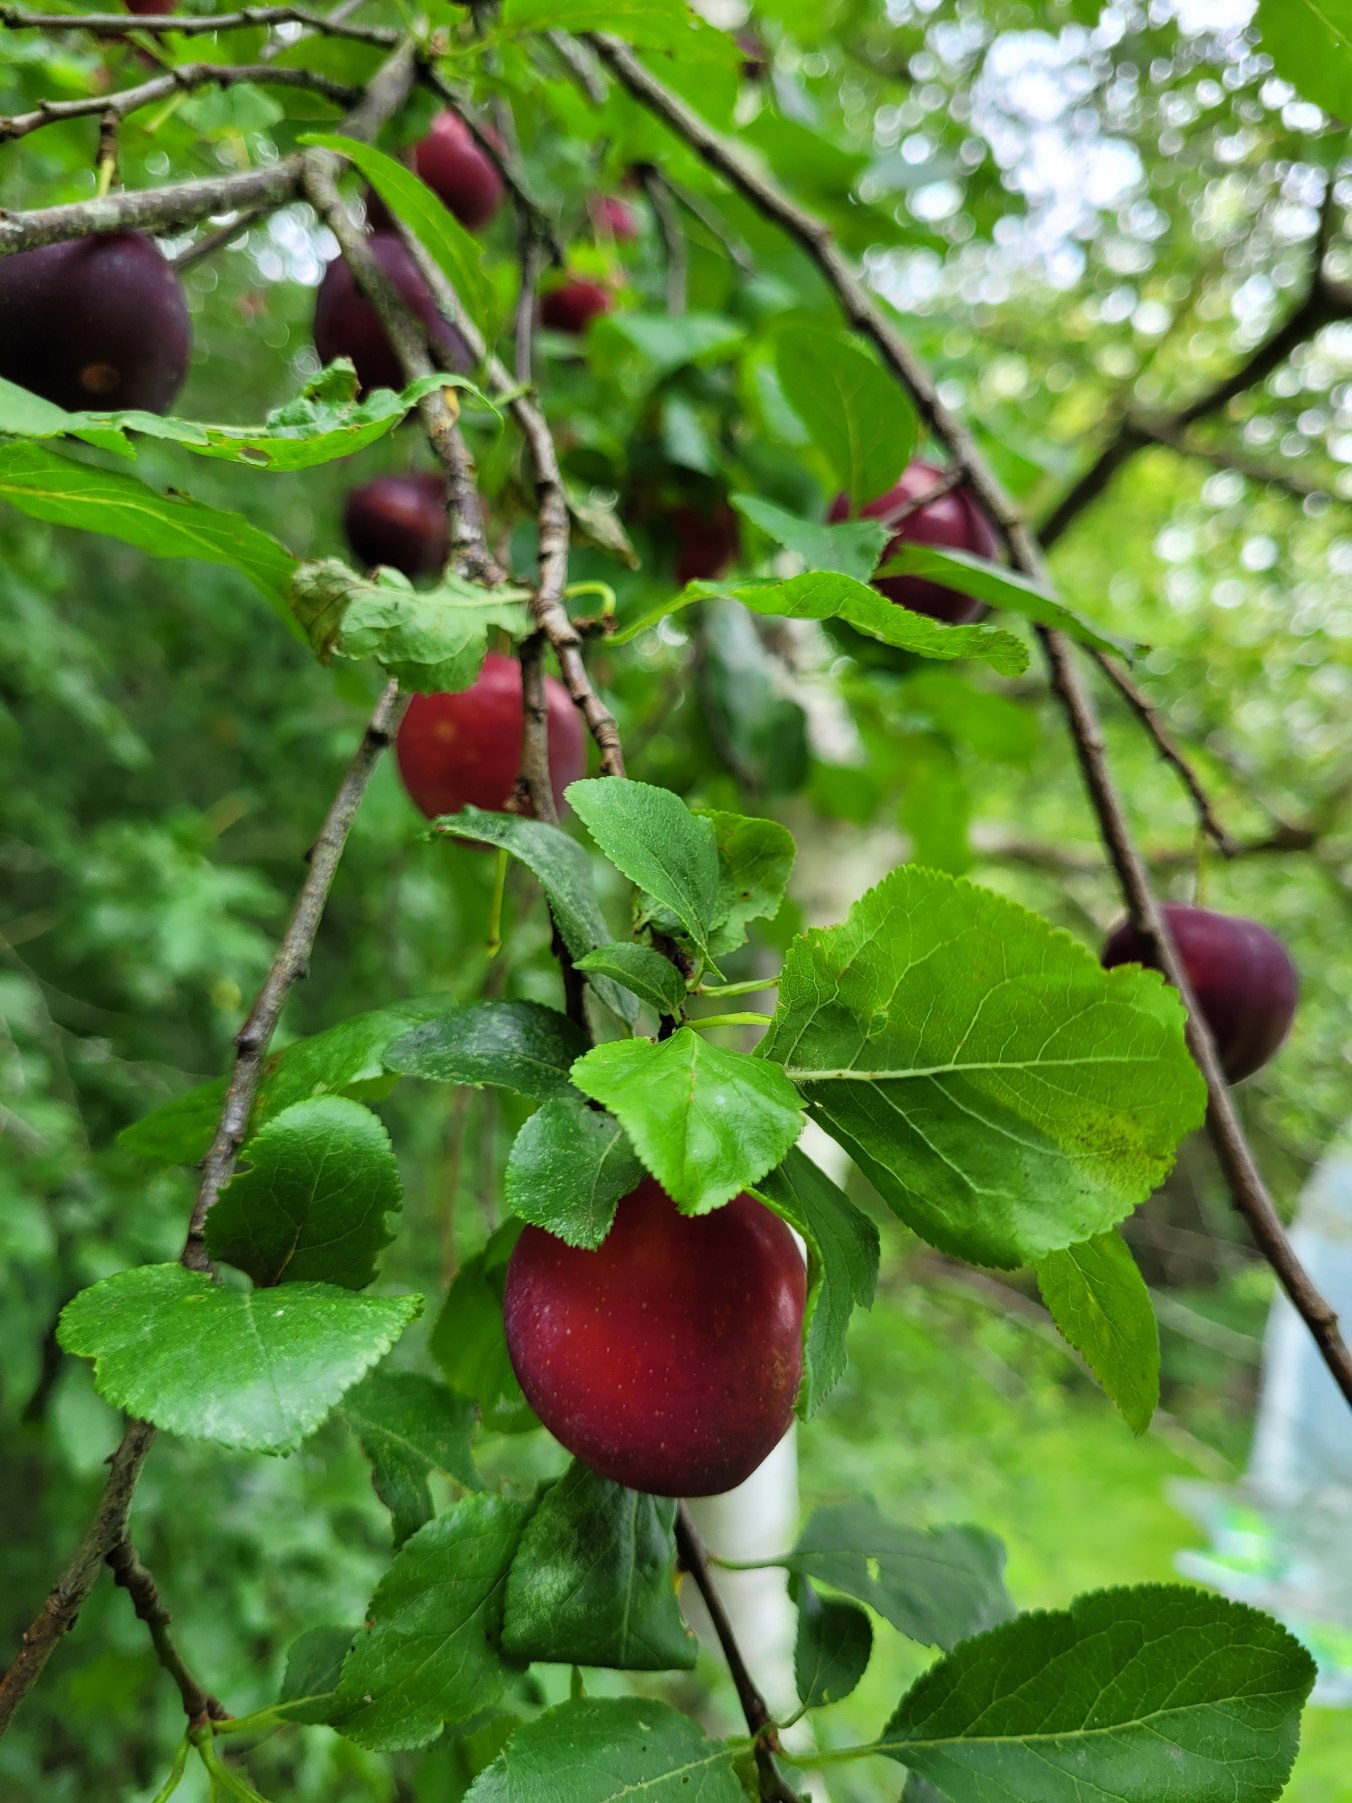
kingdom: Plantae
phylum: Tracheophyta
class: Magnoliopsida
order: Rosales
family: Rosaceae
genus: Prunus
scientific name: Prunus cerasifera
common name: Mirabel
